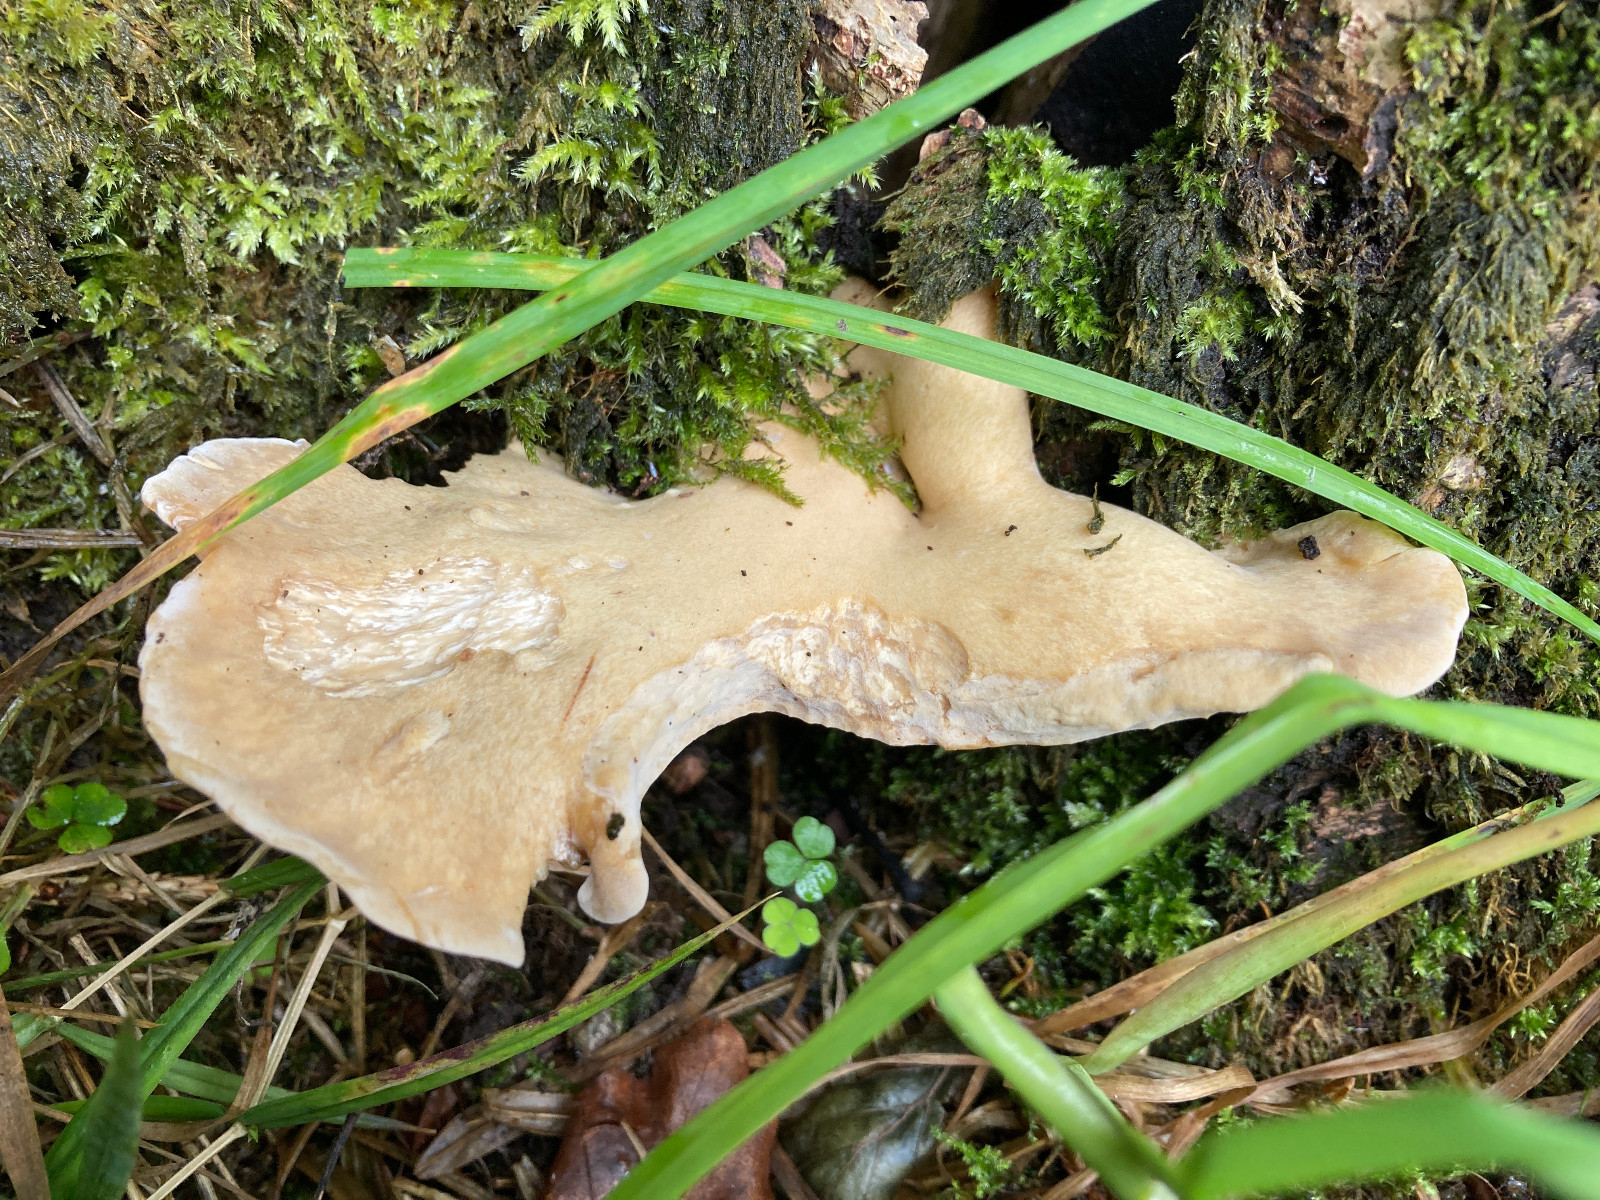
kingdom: Fungi
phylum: Basidiomycota
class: Agaricomycetes
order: Polyporales
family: Polyporaceae
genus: Cerioporus
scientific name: Cerioporus varius
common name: foranderlig stilkporesvamp
